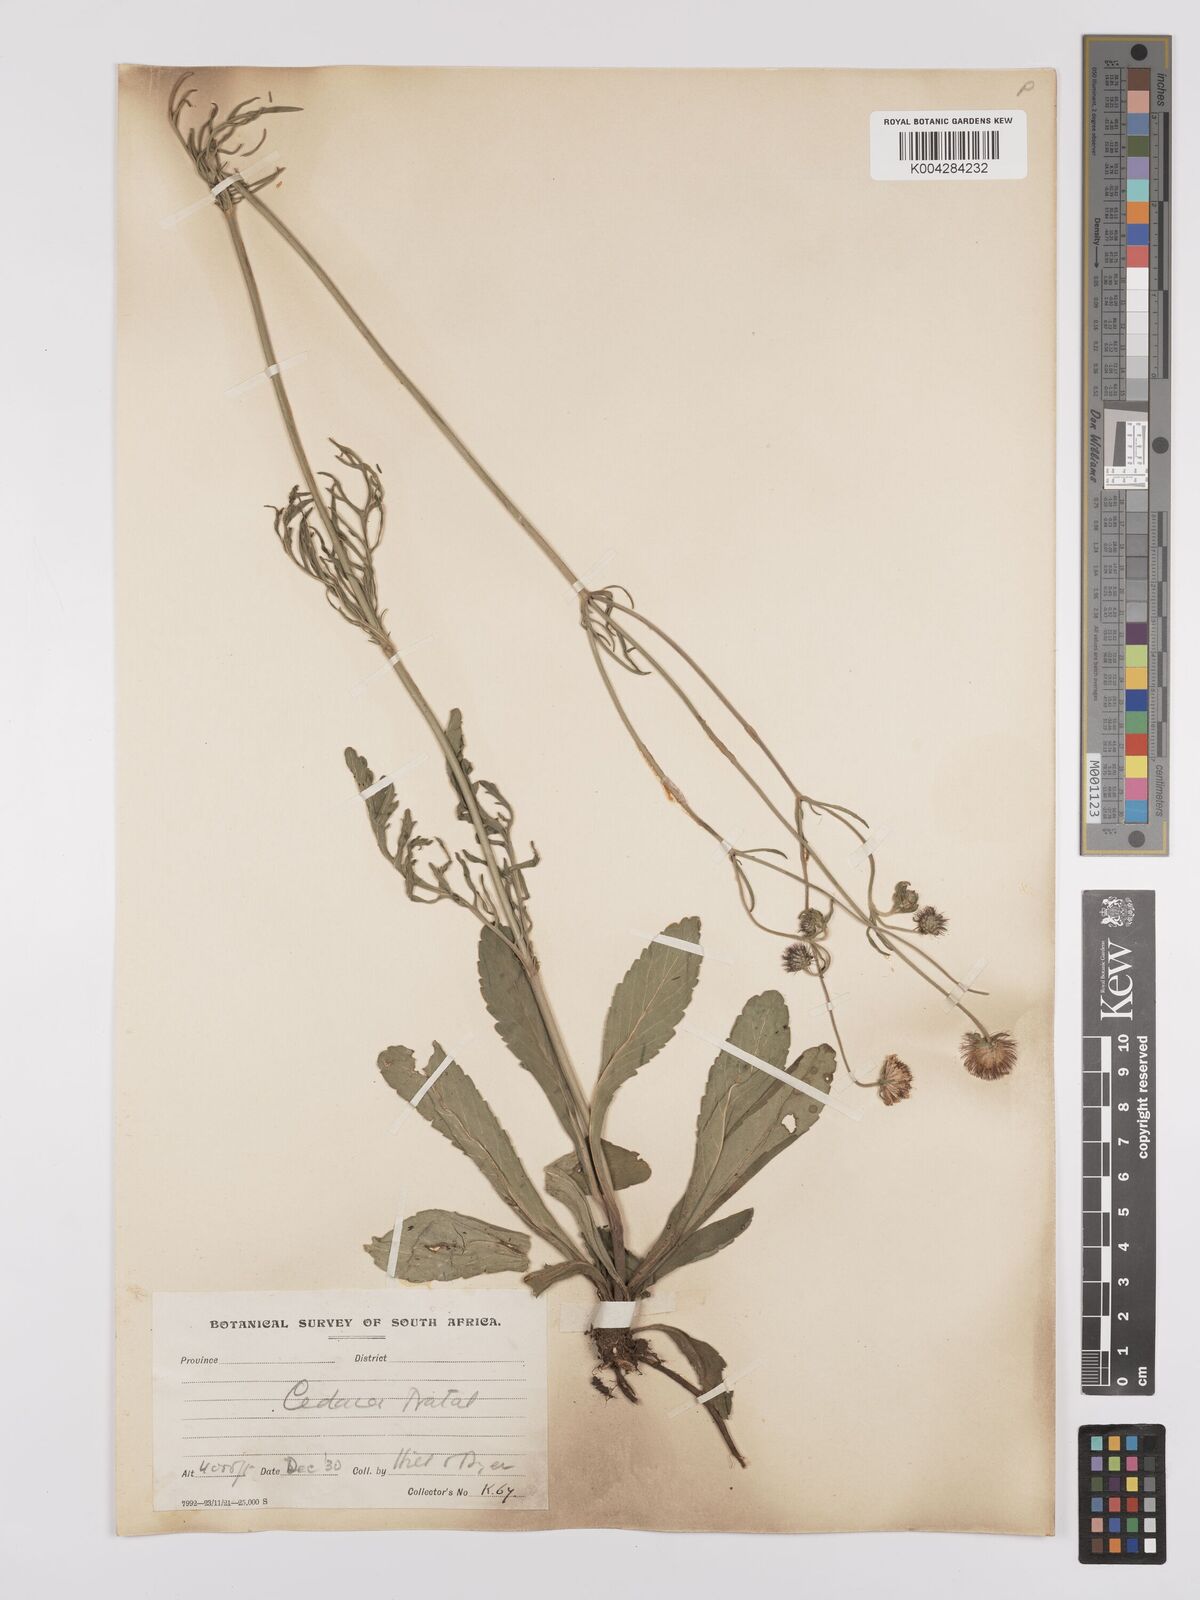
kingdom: Plantae
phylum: Tracheophyta
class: Magnoliopsida
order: Dipsacales
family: Caprifoliaceae
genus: Scabiosa
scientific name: Scabiosa columbaria
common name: Small scabious
